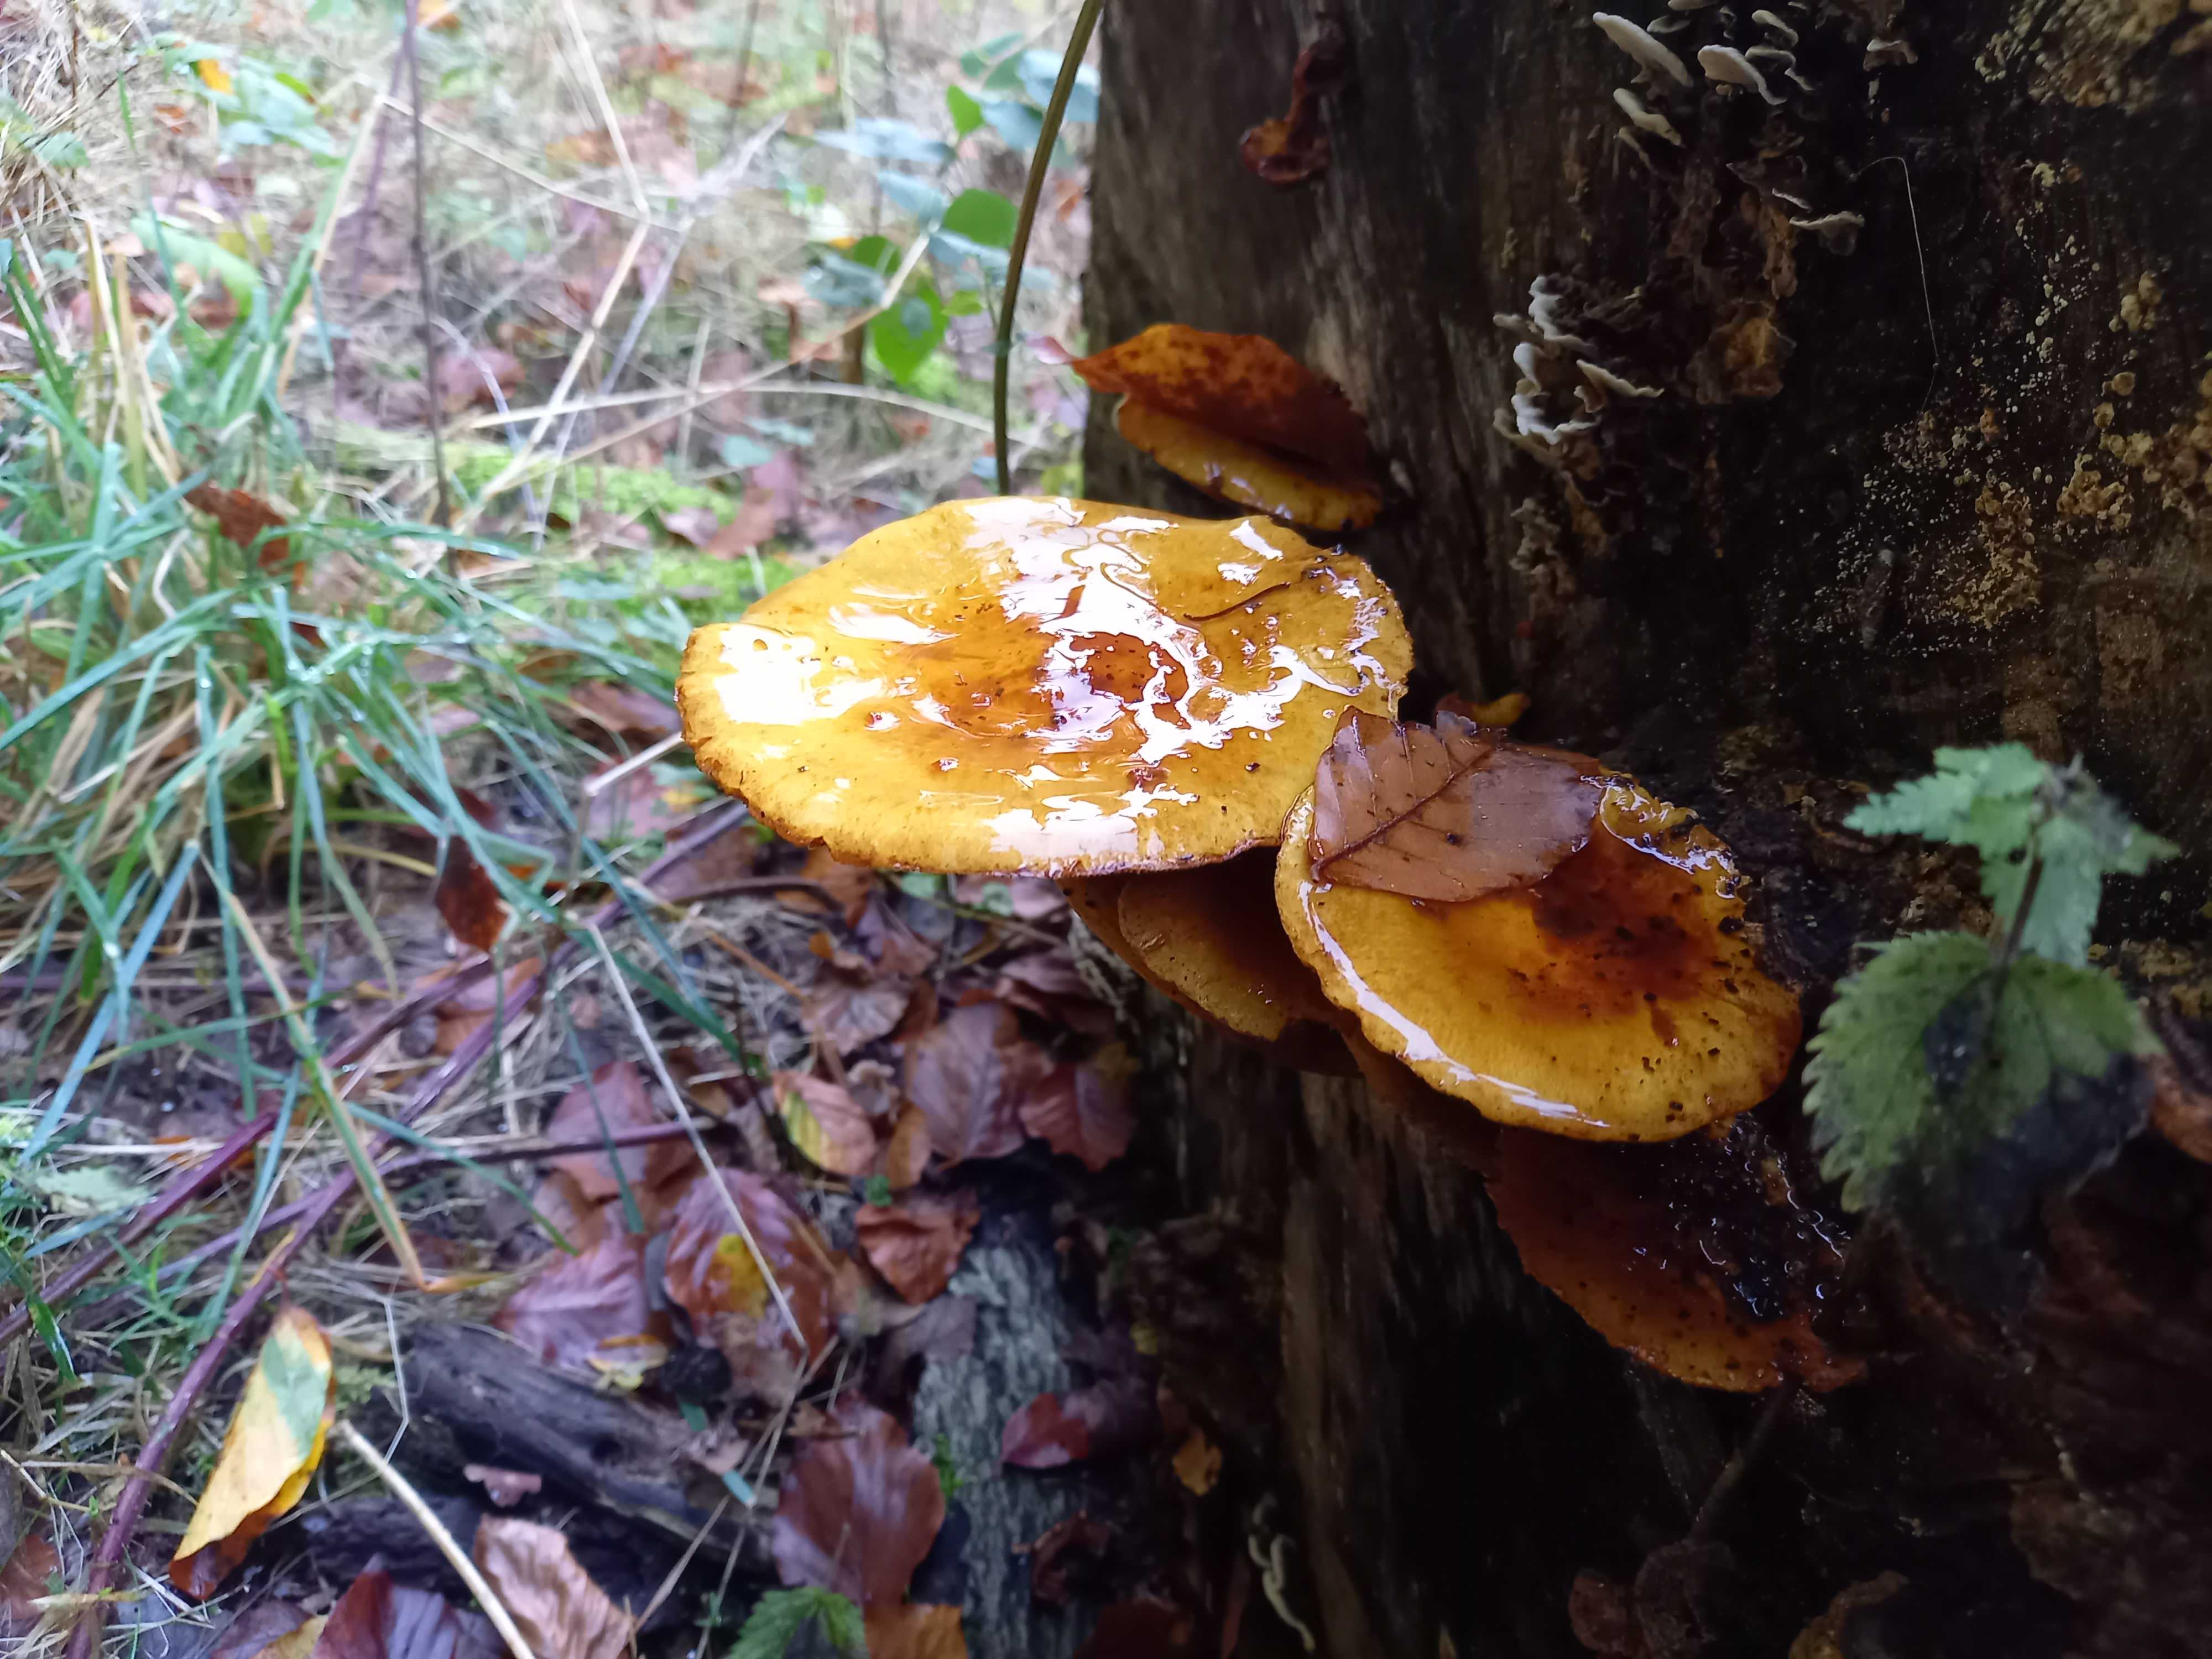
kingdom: Fungi
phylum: Basidiomycota
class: Agaricomycetes
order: Agaricales
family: Strophariaceae
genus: Pholiota
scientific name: Pholiota adiposa
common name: højtsiddende skælhat
